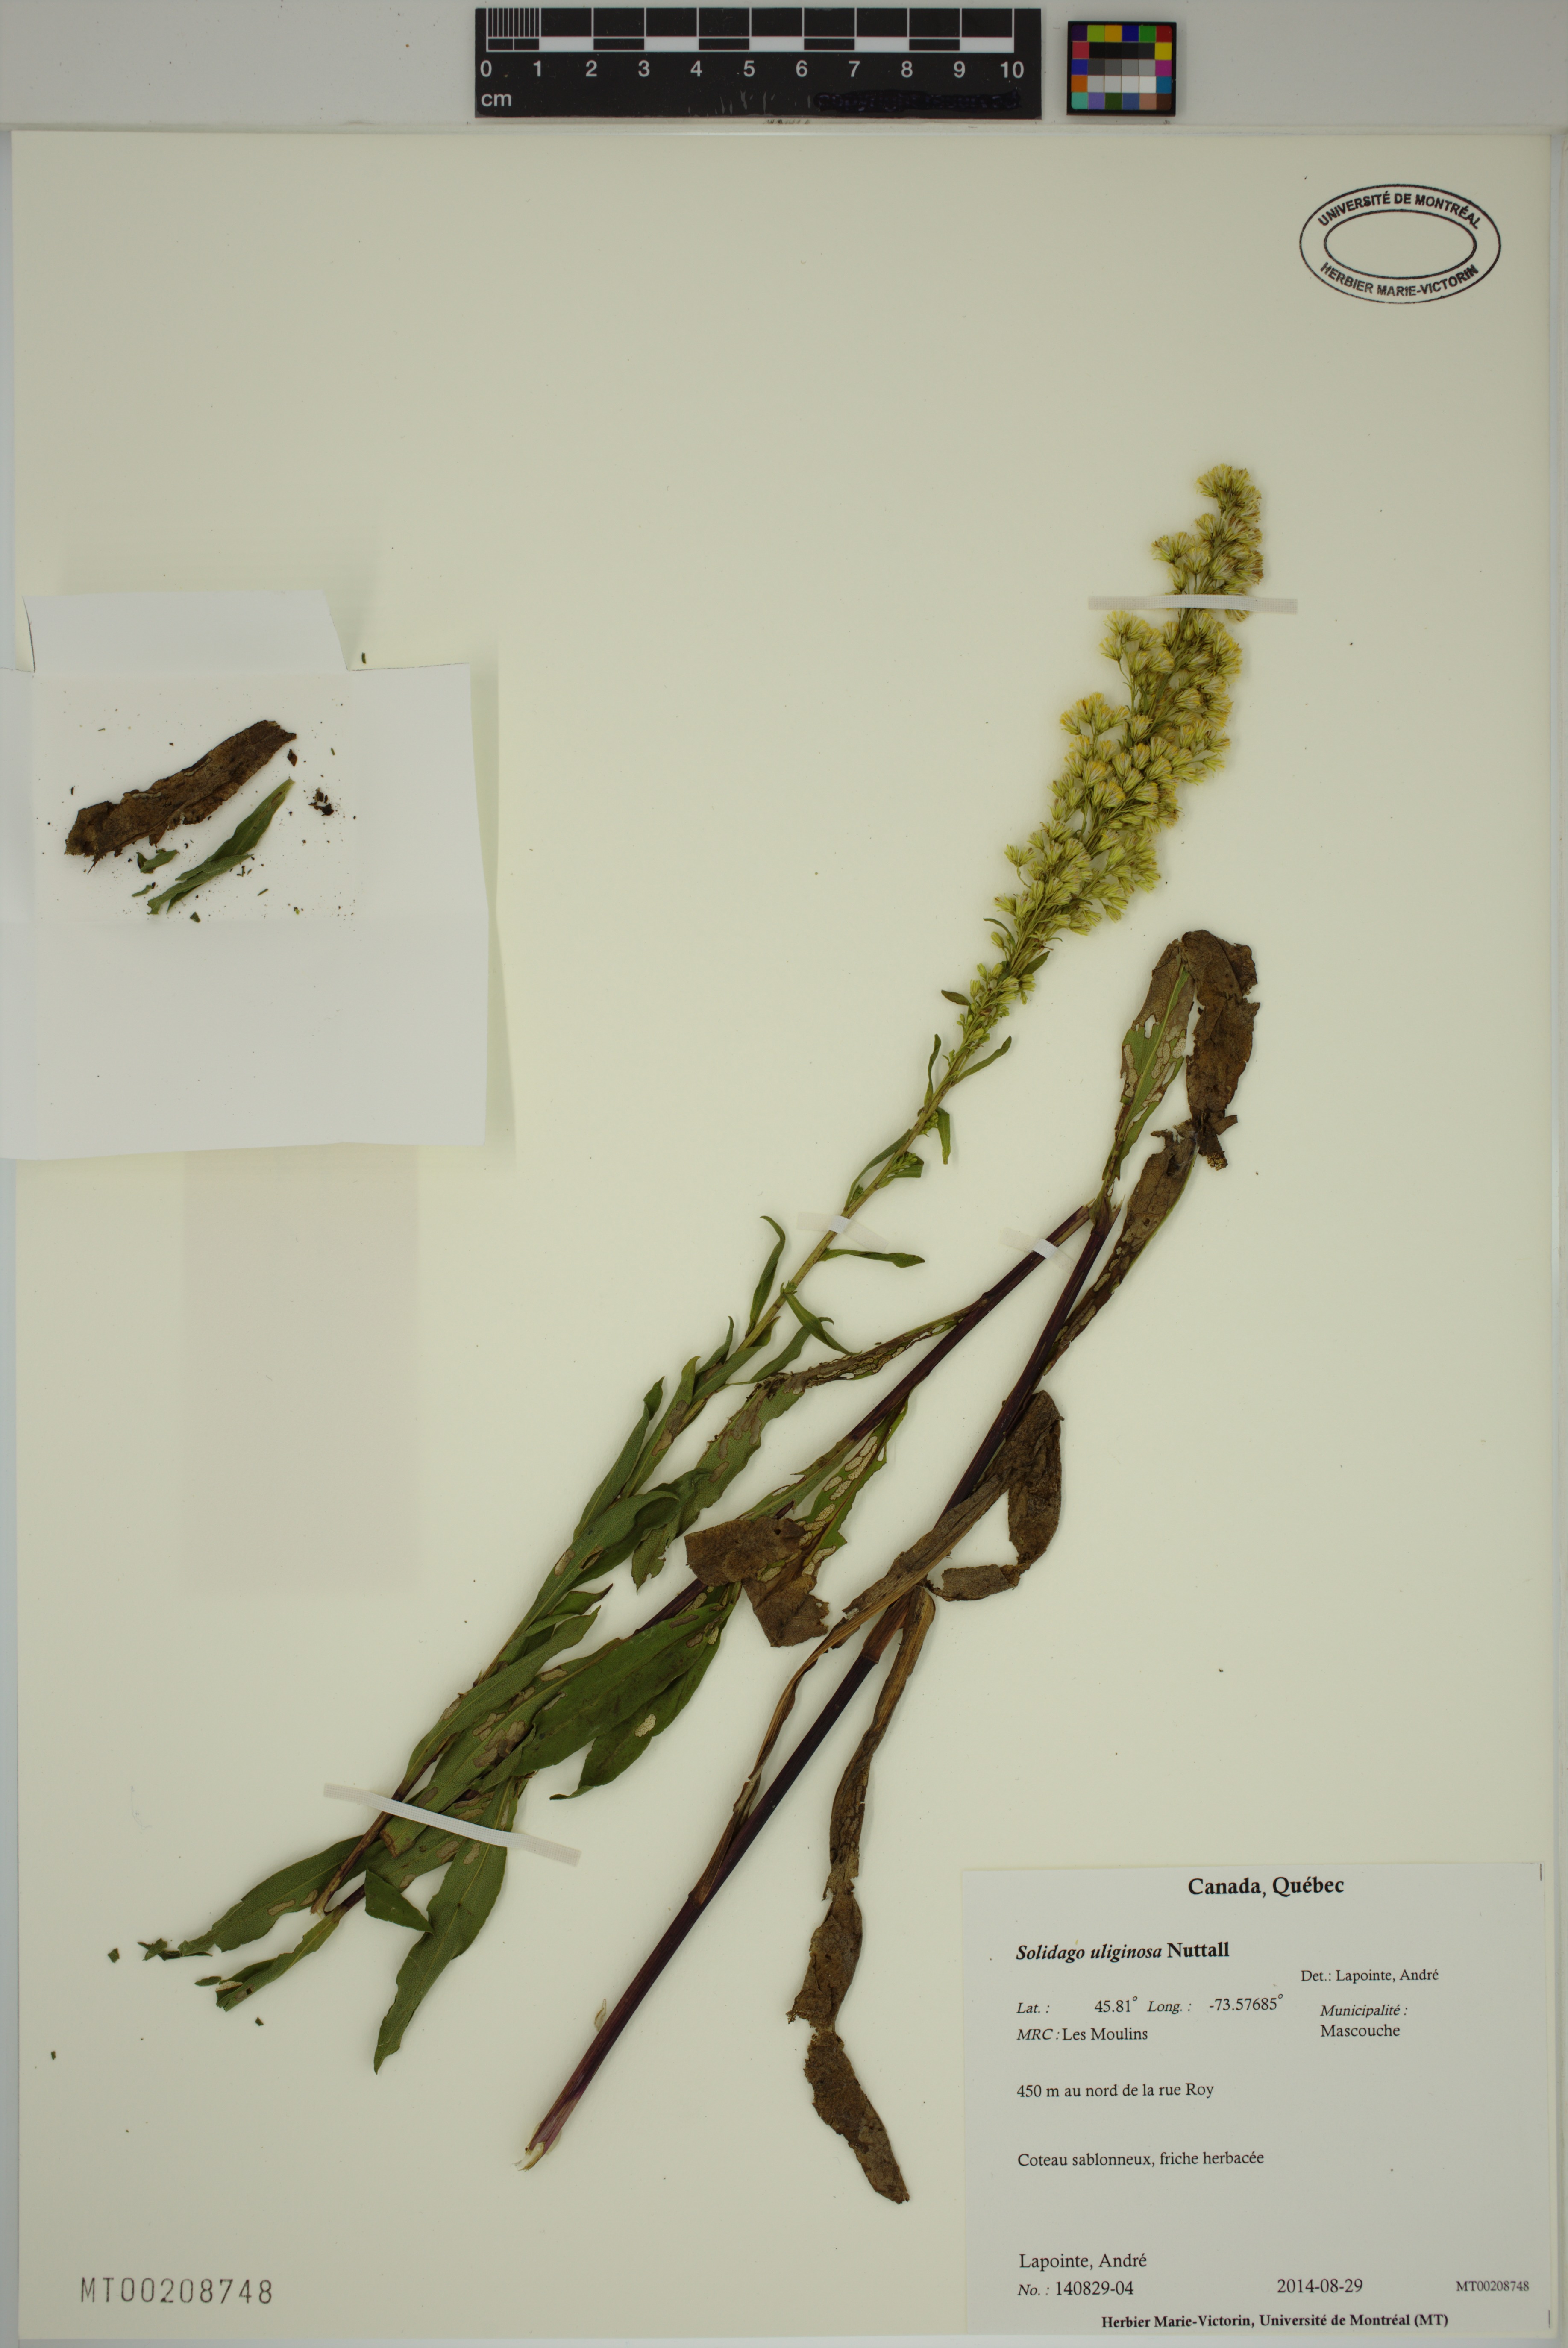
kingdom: Plantae
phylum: Tracheophyta
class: Magnoliopsida
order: Asterales
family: Asteraceae
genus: Solidago
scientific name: Solidago uliginosa
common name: Bog goldenrod
